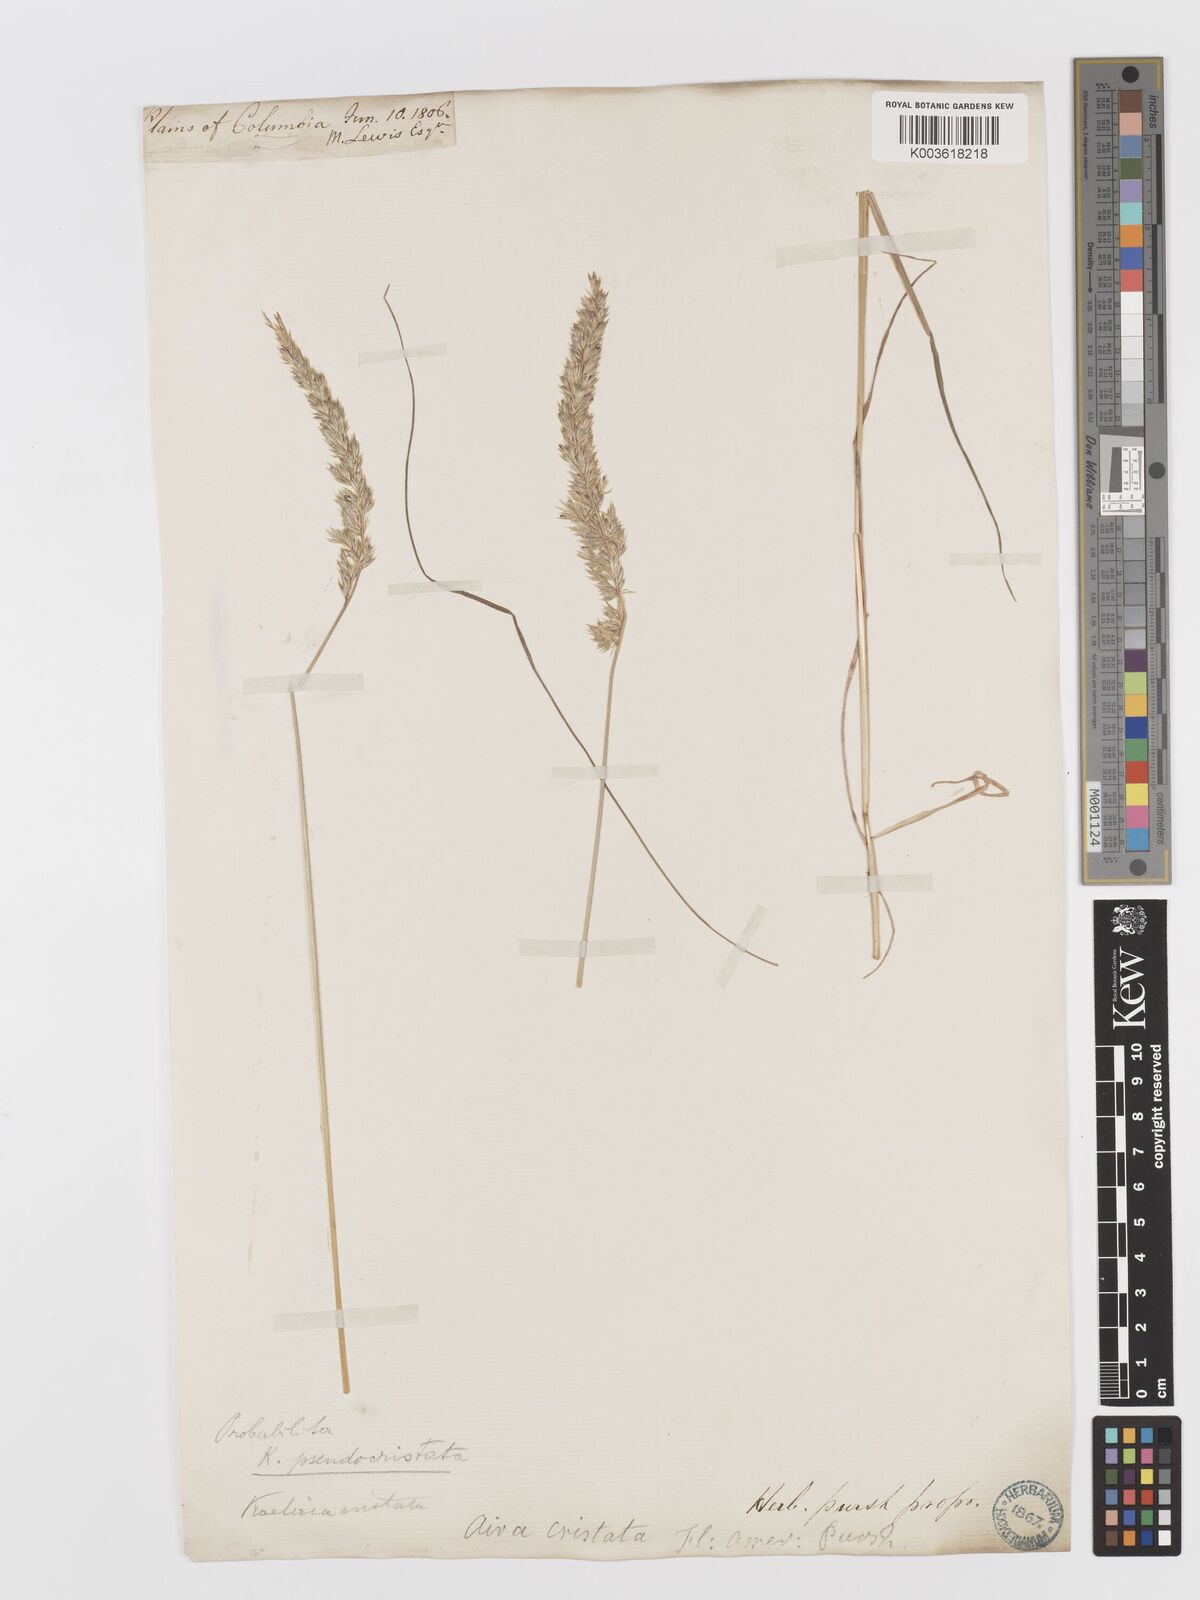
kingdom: Plantae
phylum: Tracheophyta
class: Liliopsida
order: Poales
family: Poaceae
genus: Koeleria
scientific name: Koeleria macrantha
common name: Crested hair-grass
